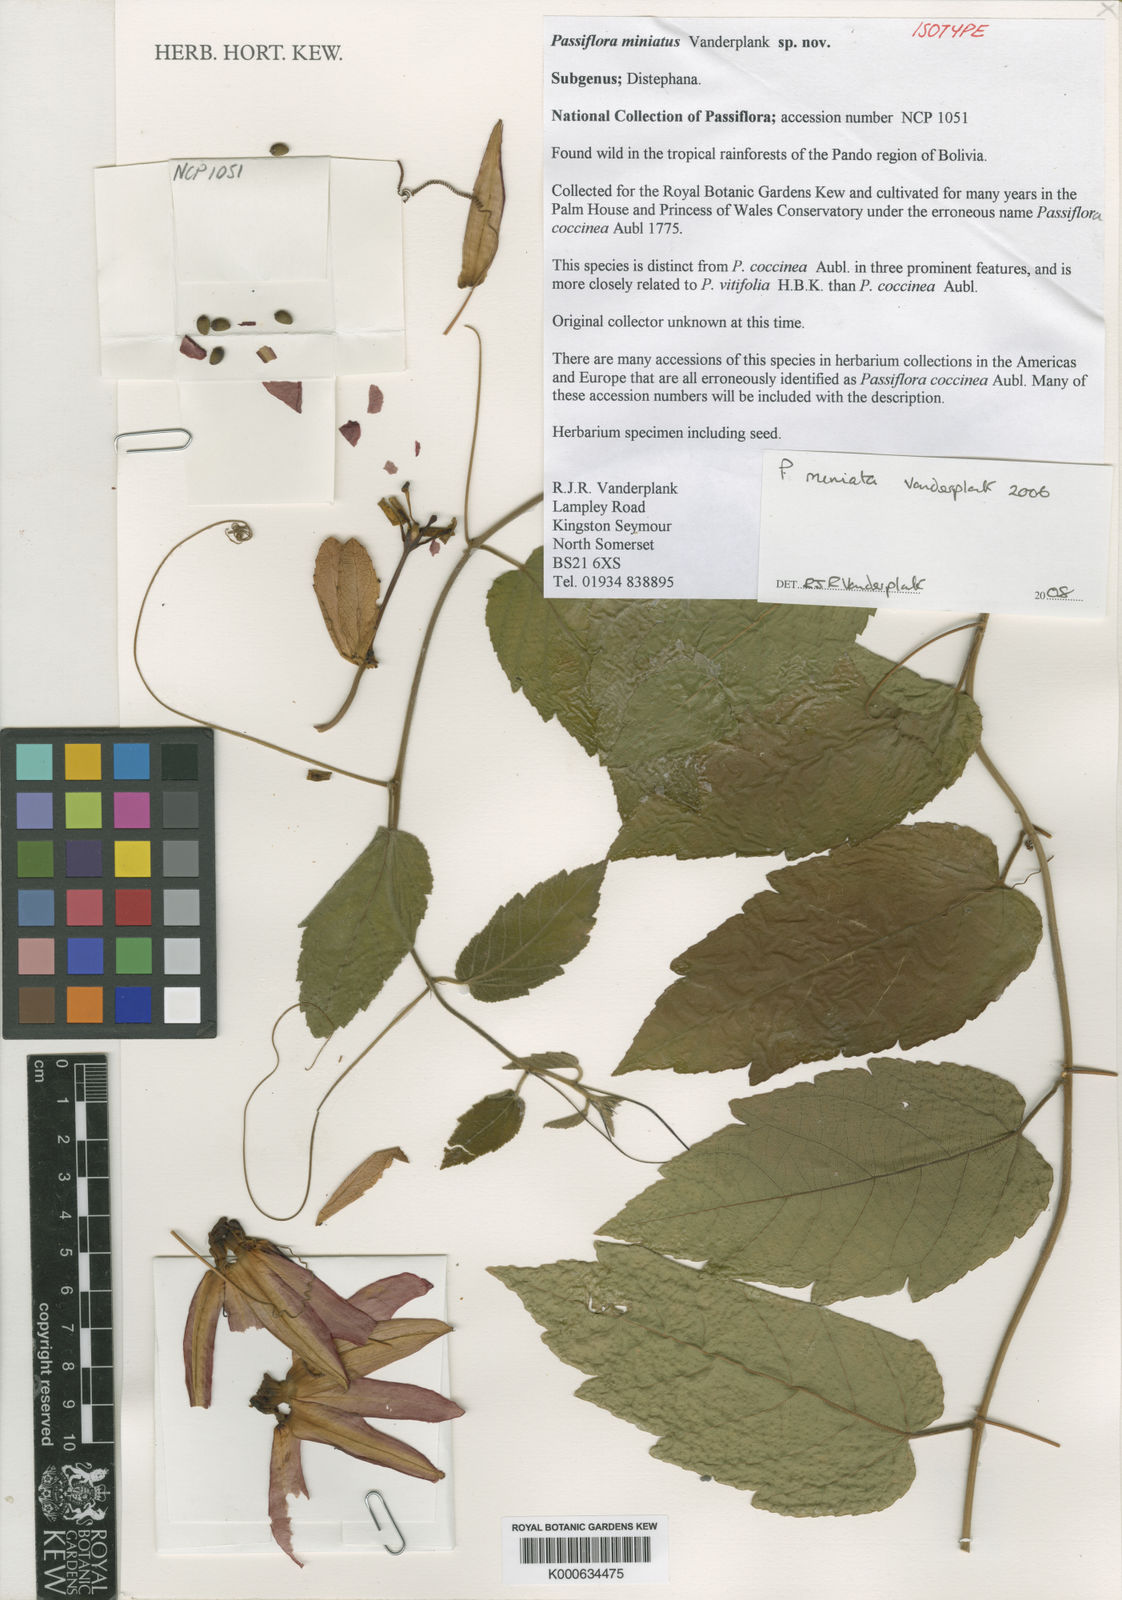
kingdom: Plantae
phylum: Tracheophyta
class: Magnoliopsida
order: Malpighiales
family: Passifloraceae
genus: Passiflora
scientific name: Passiflora miniata
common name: Red granadilla
